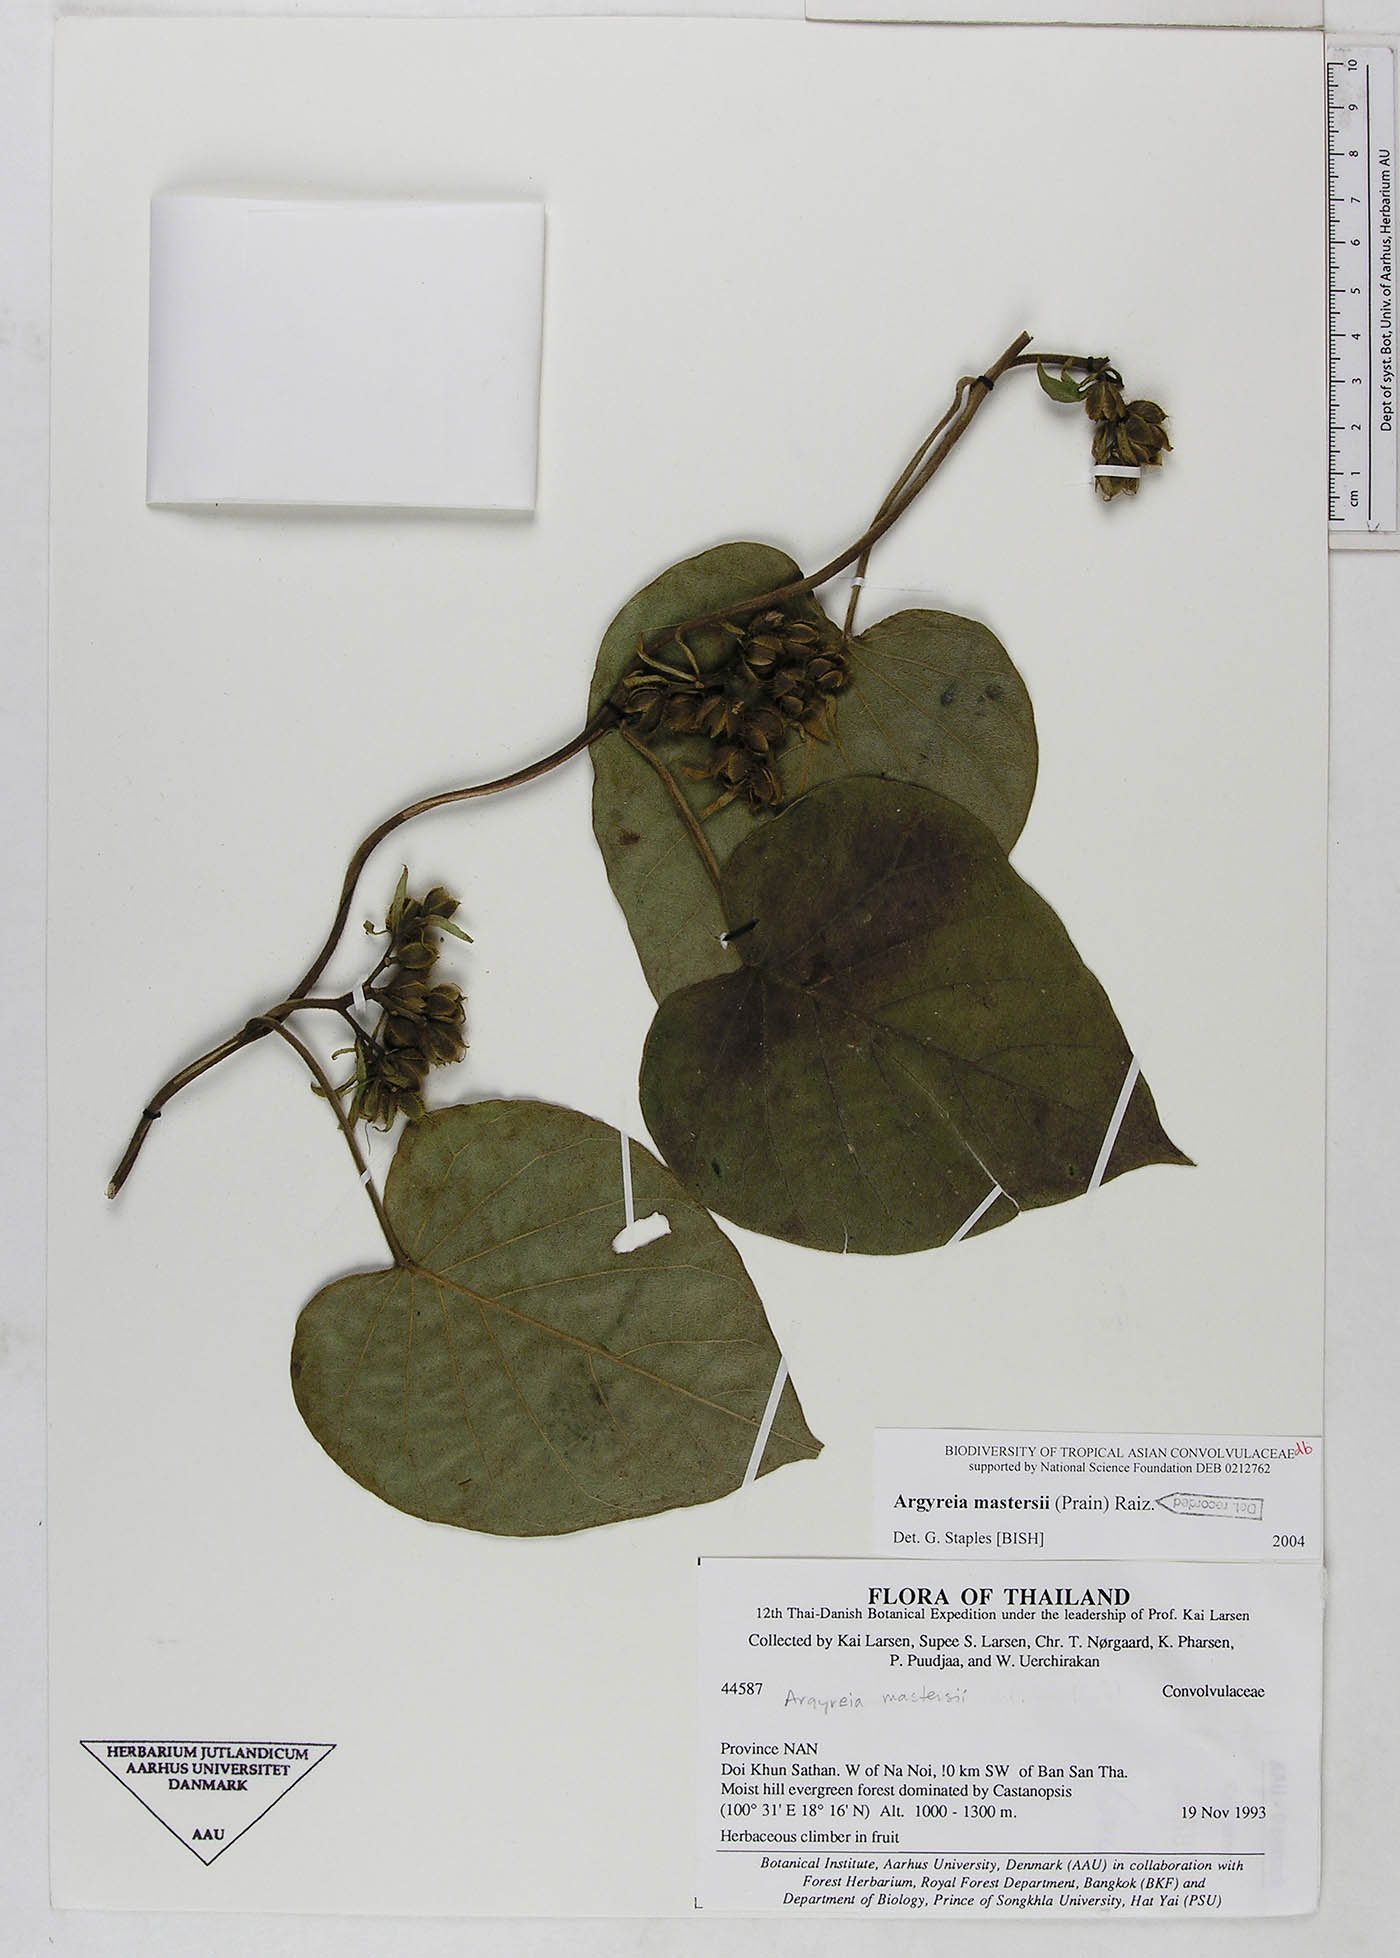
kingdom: Plantae
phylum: Tracheophyta
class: Magnoliopsida
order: Solanales
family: Convolvulaceae
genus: Argyreia
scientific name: Argyreia mastersii
